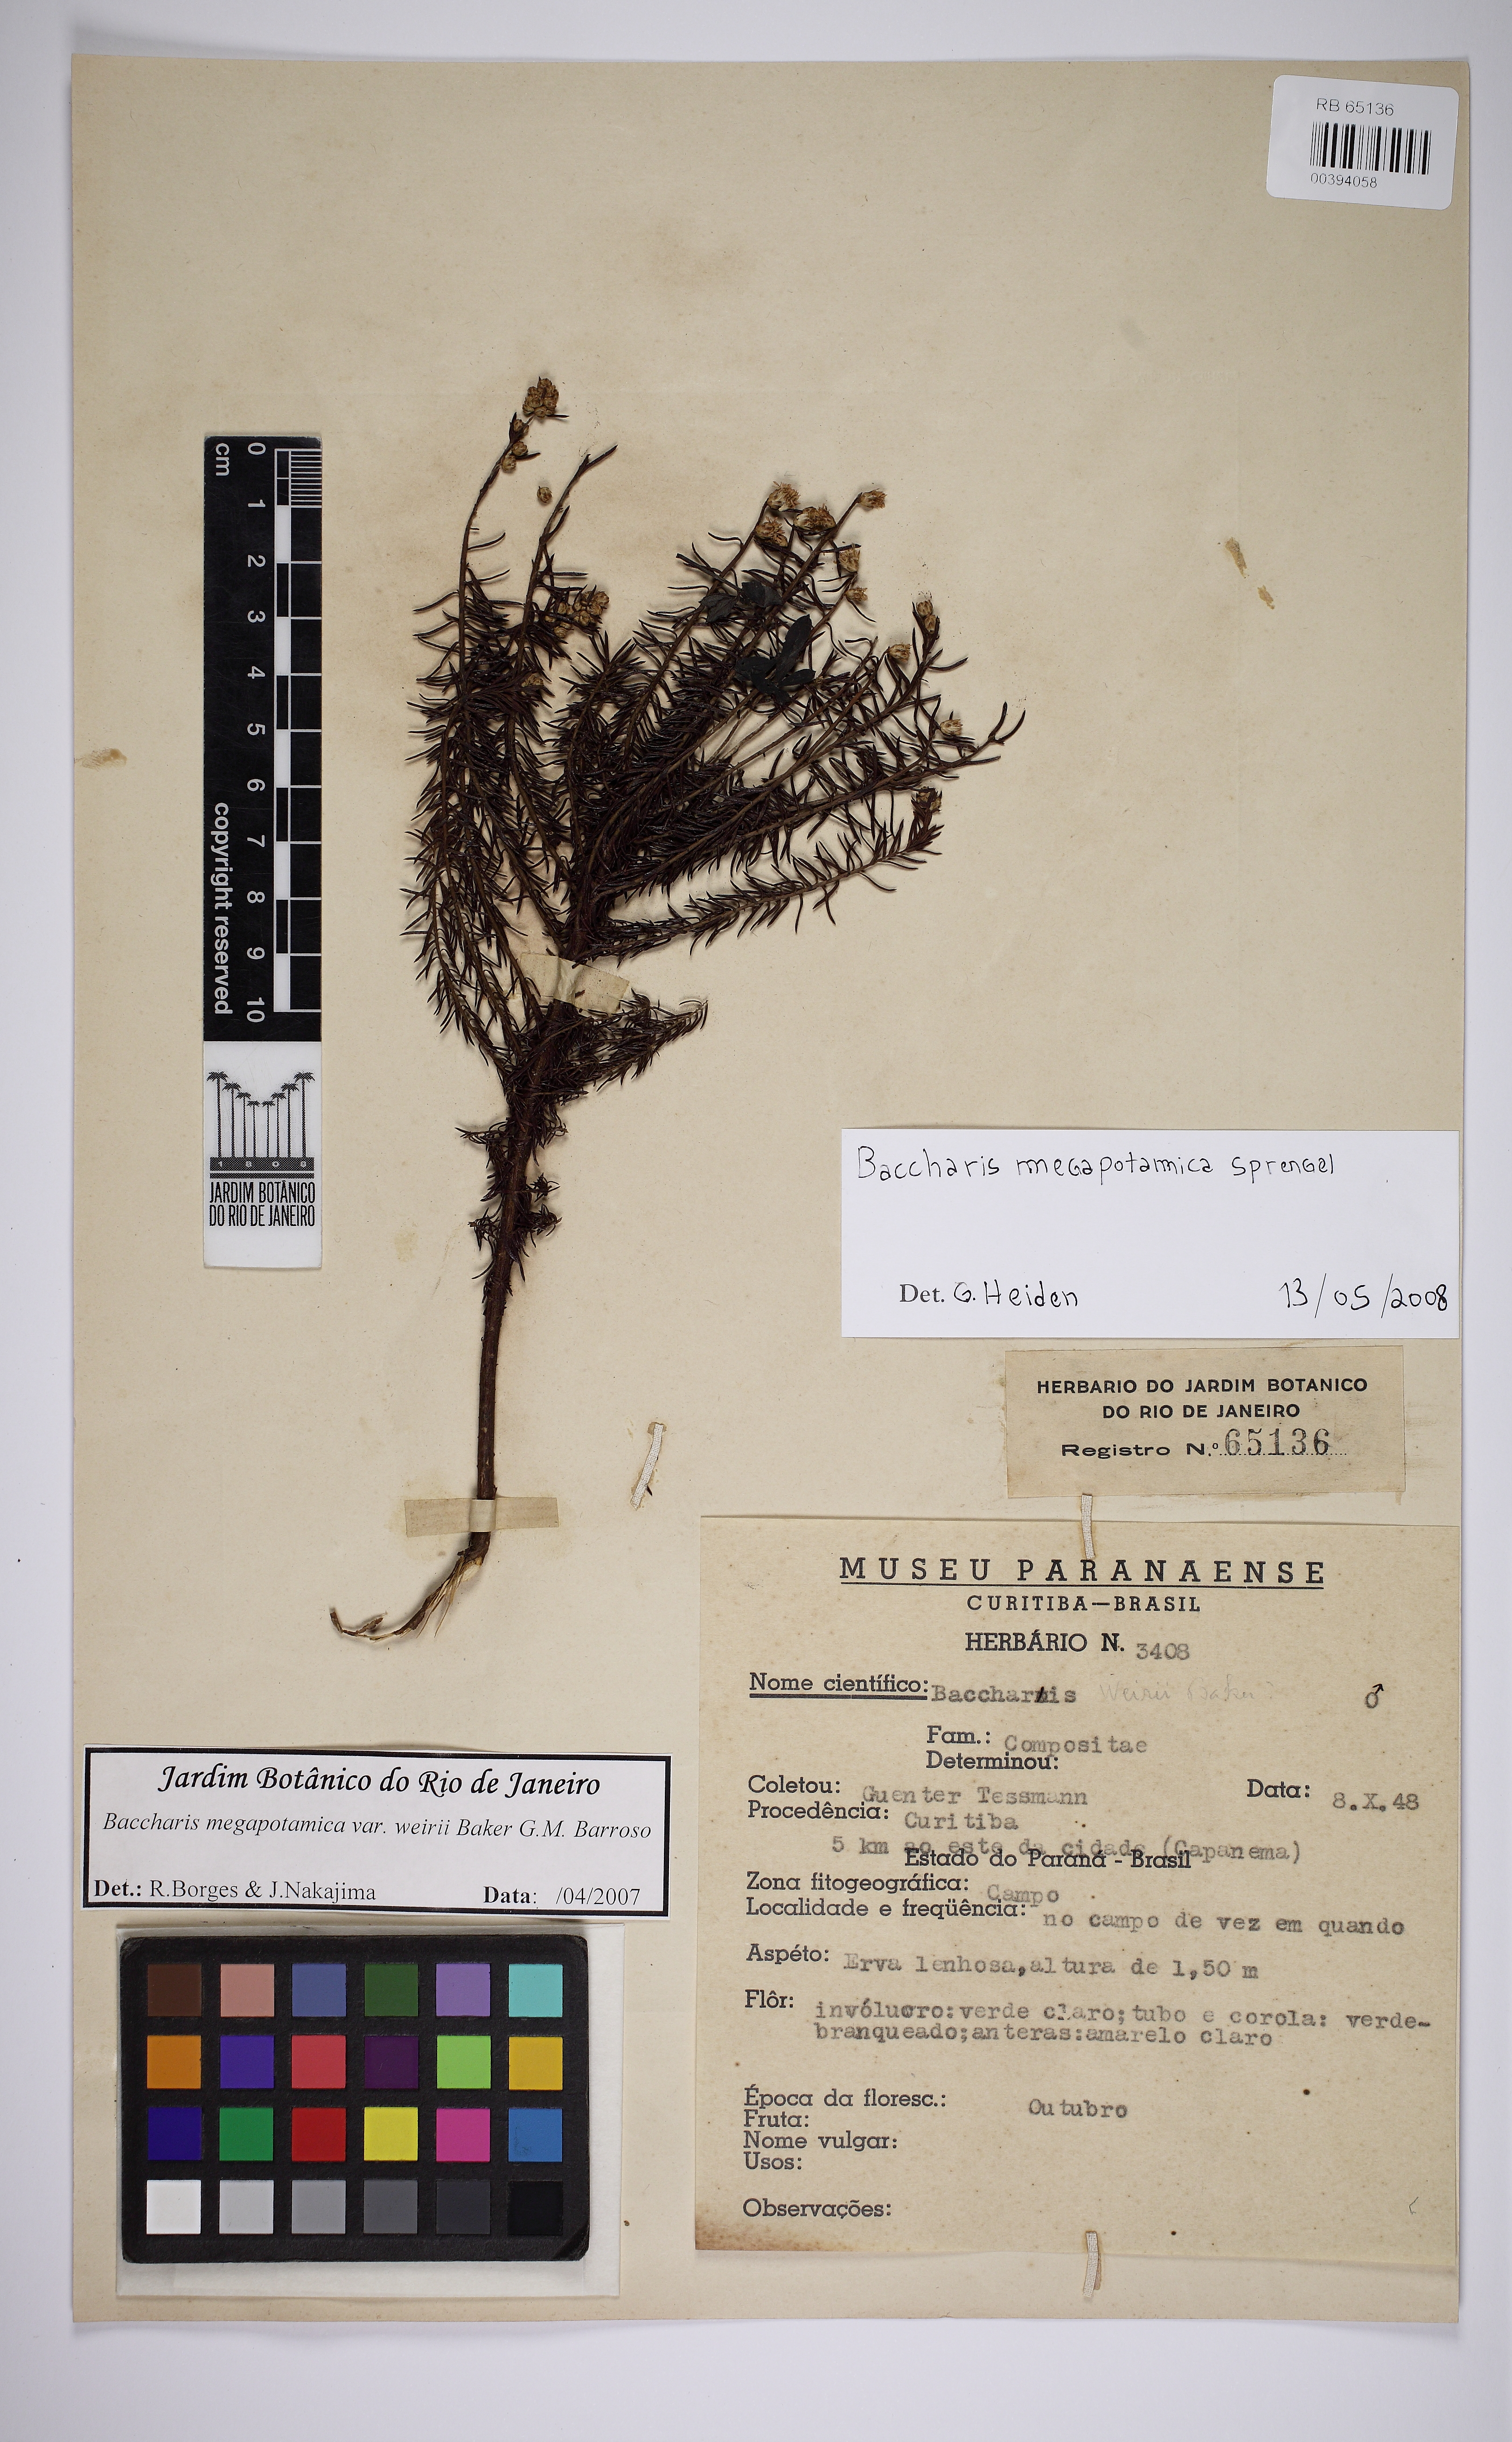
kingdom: Plantae
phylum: Tracheophyta
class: Magnoliopsida
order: Asterales
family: Asteraceae
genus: Baccharis
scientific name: Baccharis megapotamica
